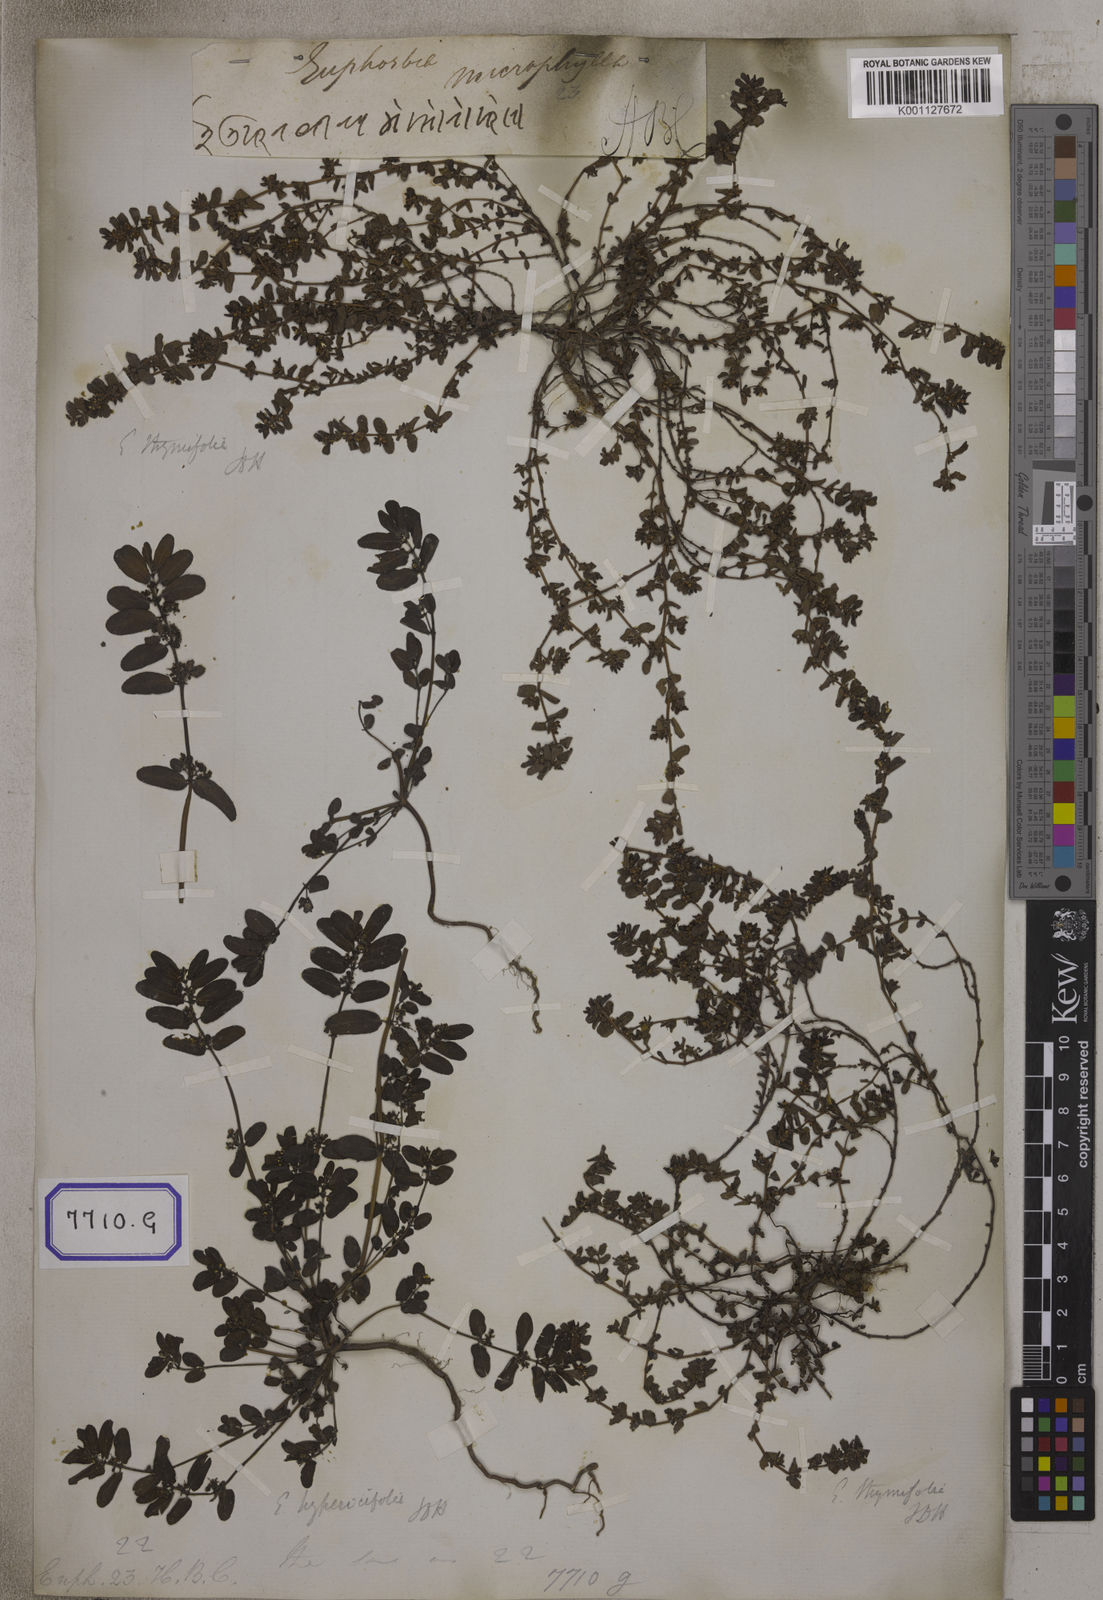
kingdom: Plantae
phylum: Tracheophyta
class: Magnoliopsida
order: Malpighiales
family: Euphorbiaceae
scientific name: Euphorbiaceae
